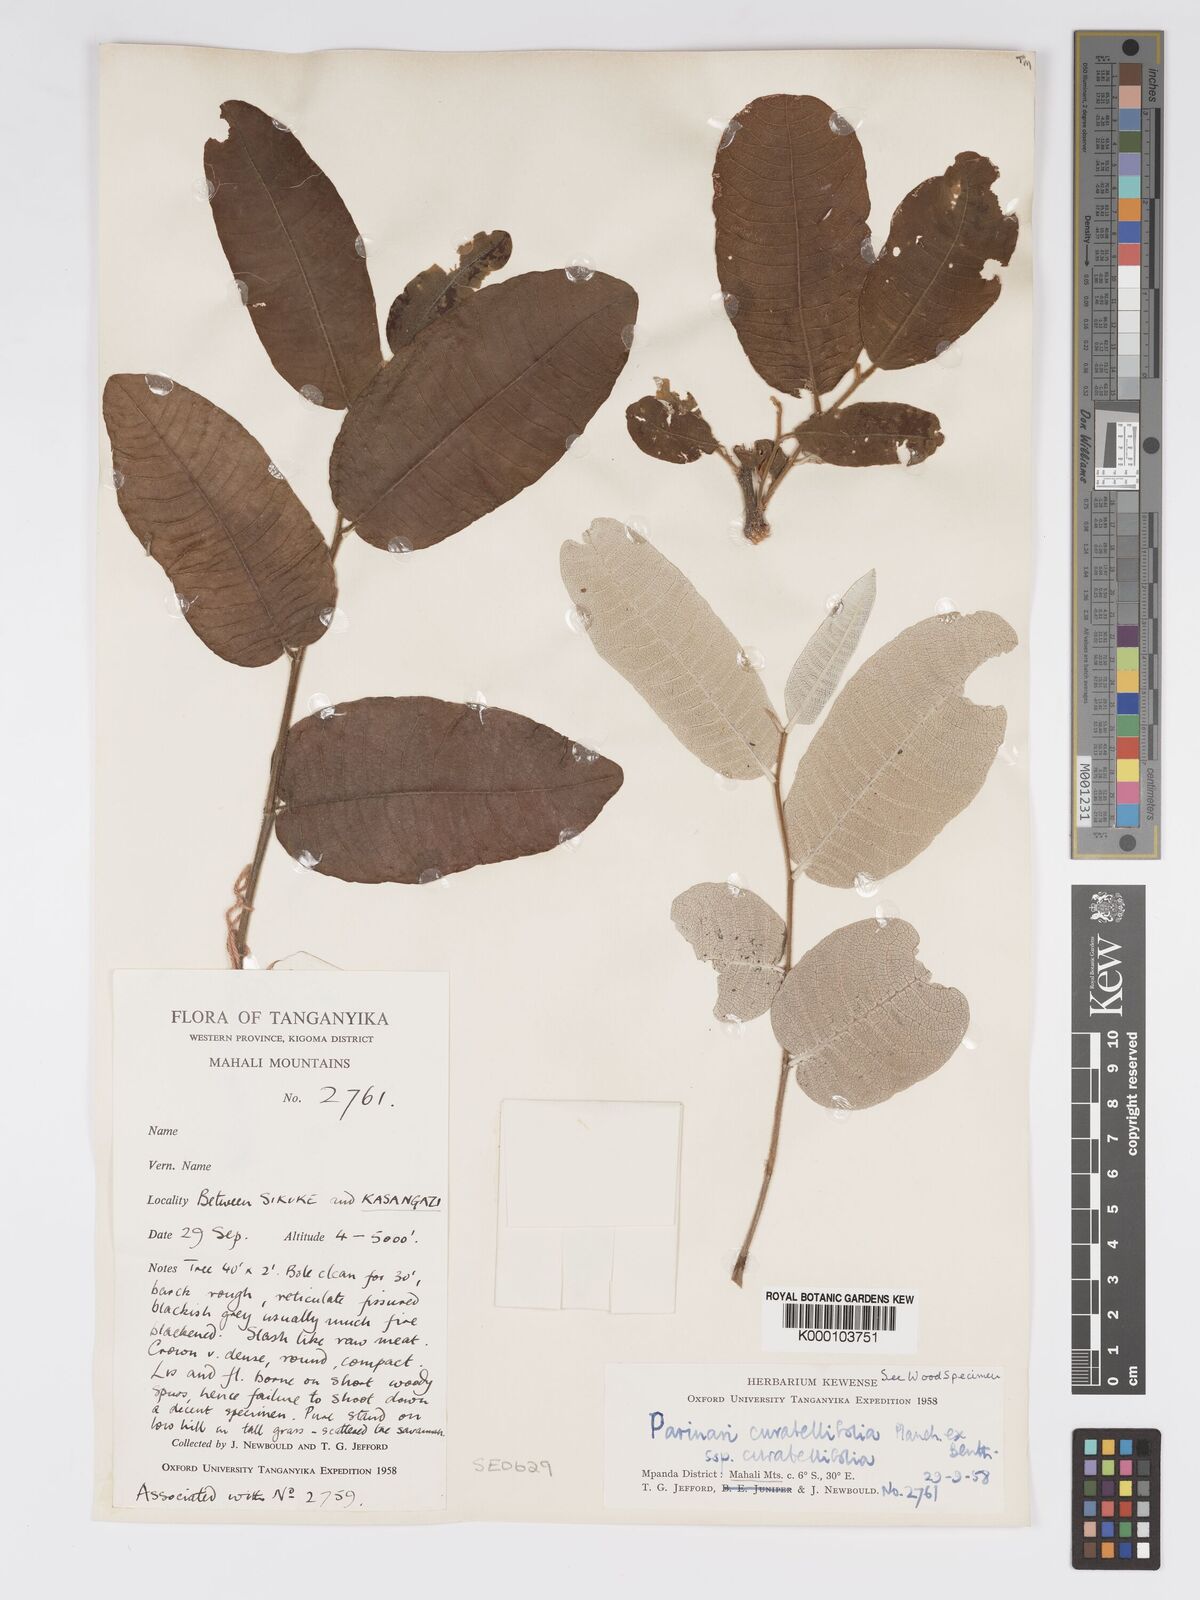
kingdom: Plantae
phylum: Tracheophyta
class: Magnoliopsida
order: Malpighiales
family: Chrysobalanaceae
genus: Parinari
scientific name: Parinari curatellifolia
